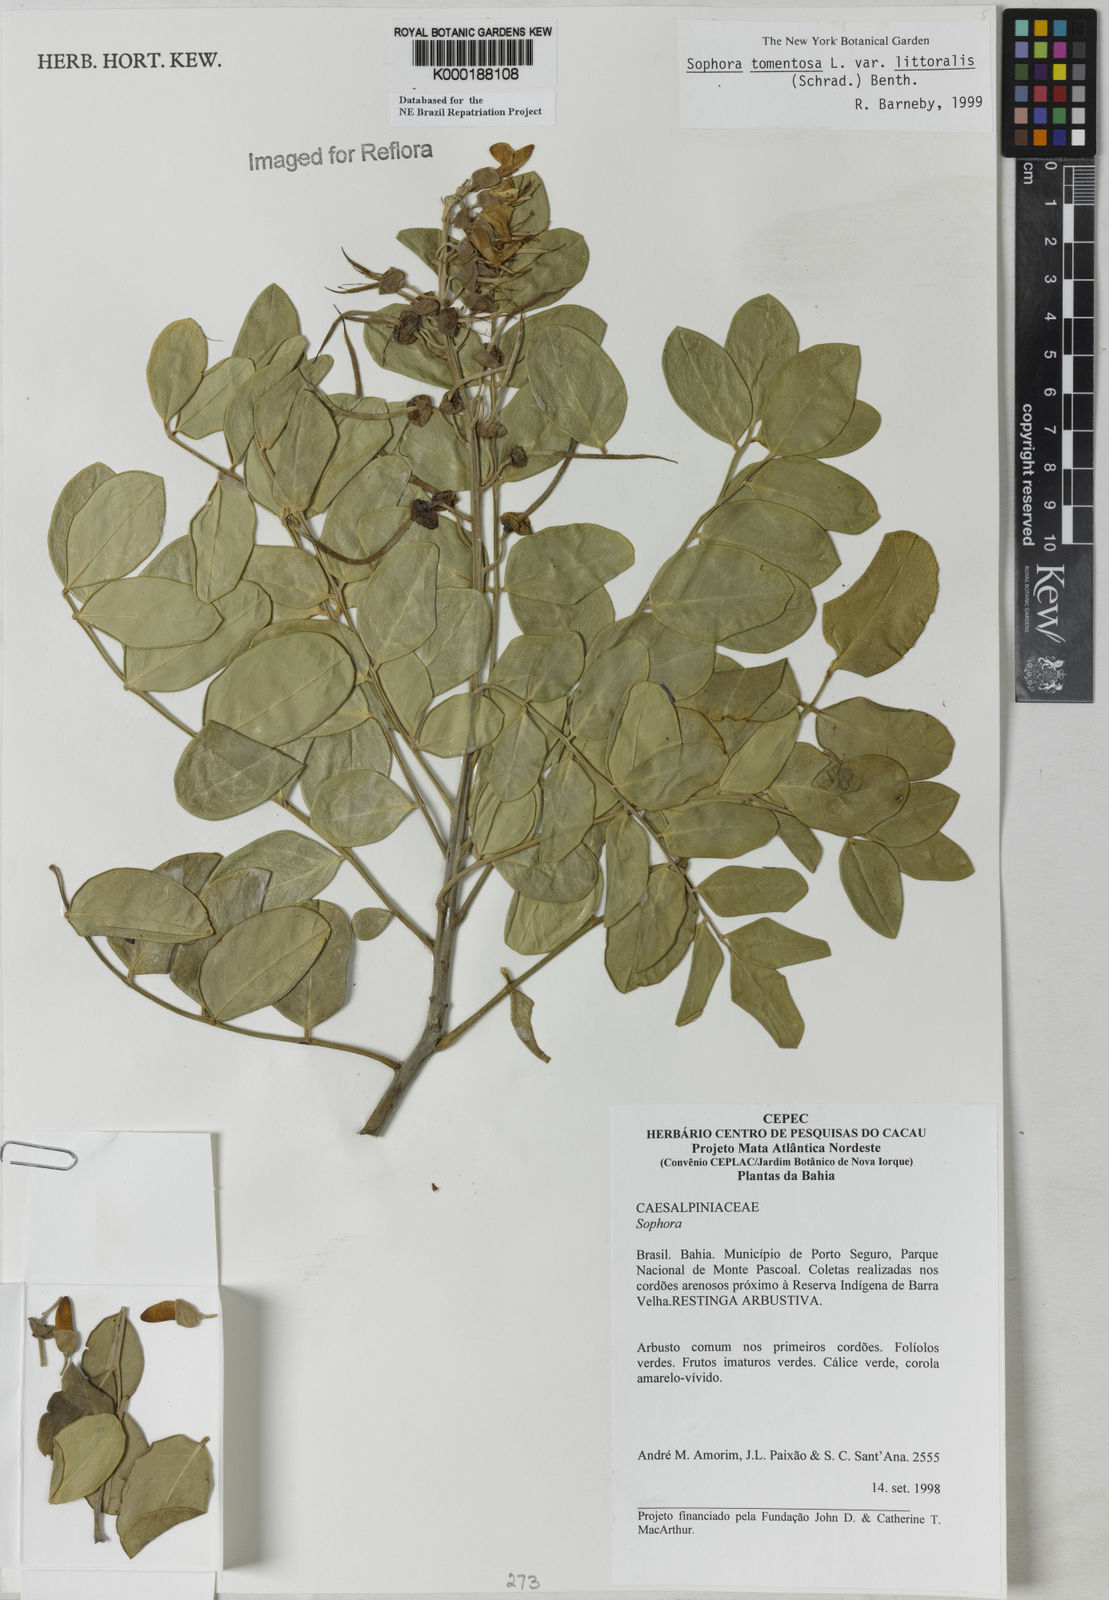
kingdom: Plantae
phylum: Tracheophyta
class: Magnoliopsida
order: Fabales
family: Fabaceae
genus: Sophora
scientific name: Sophora tomentosa
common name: Yellow necklacepod
